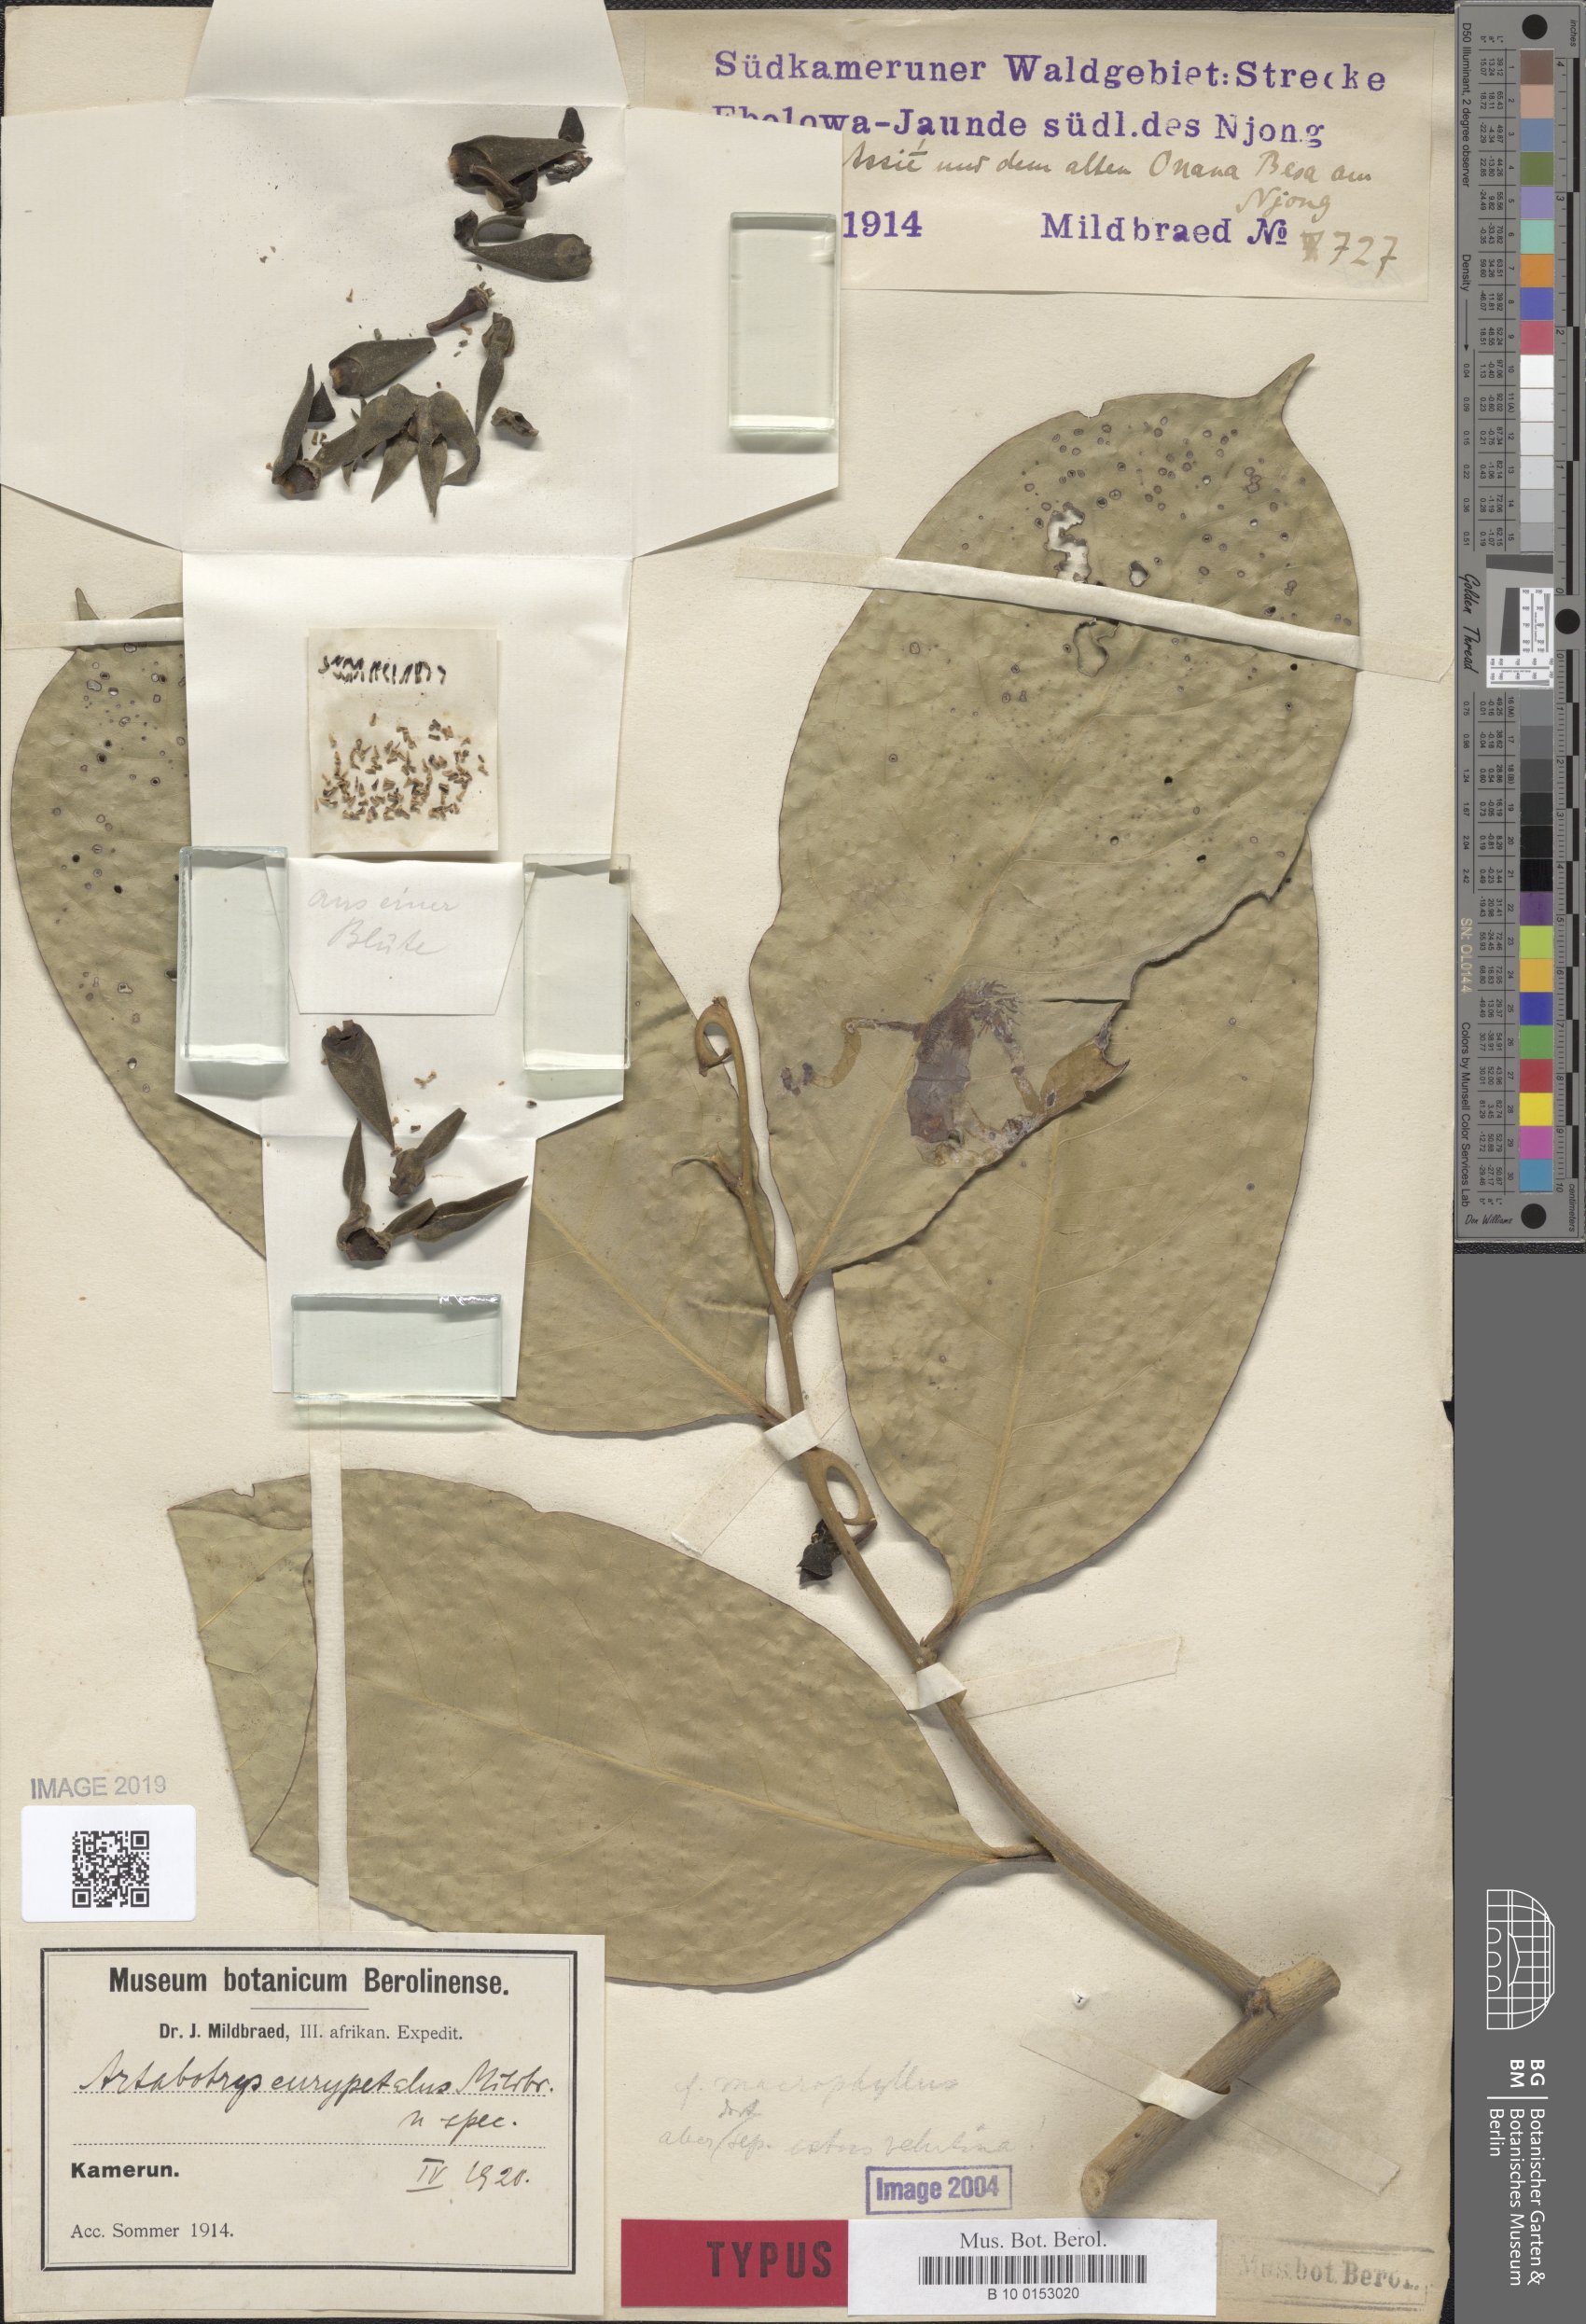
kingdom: Plantae
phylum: Tracheophyta
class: Magnoliopsida
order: Magnoliales
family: Annonaceae
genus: Artabotrys
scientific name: Artabotrys
